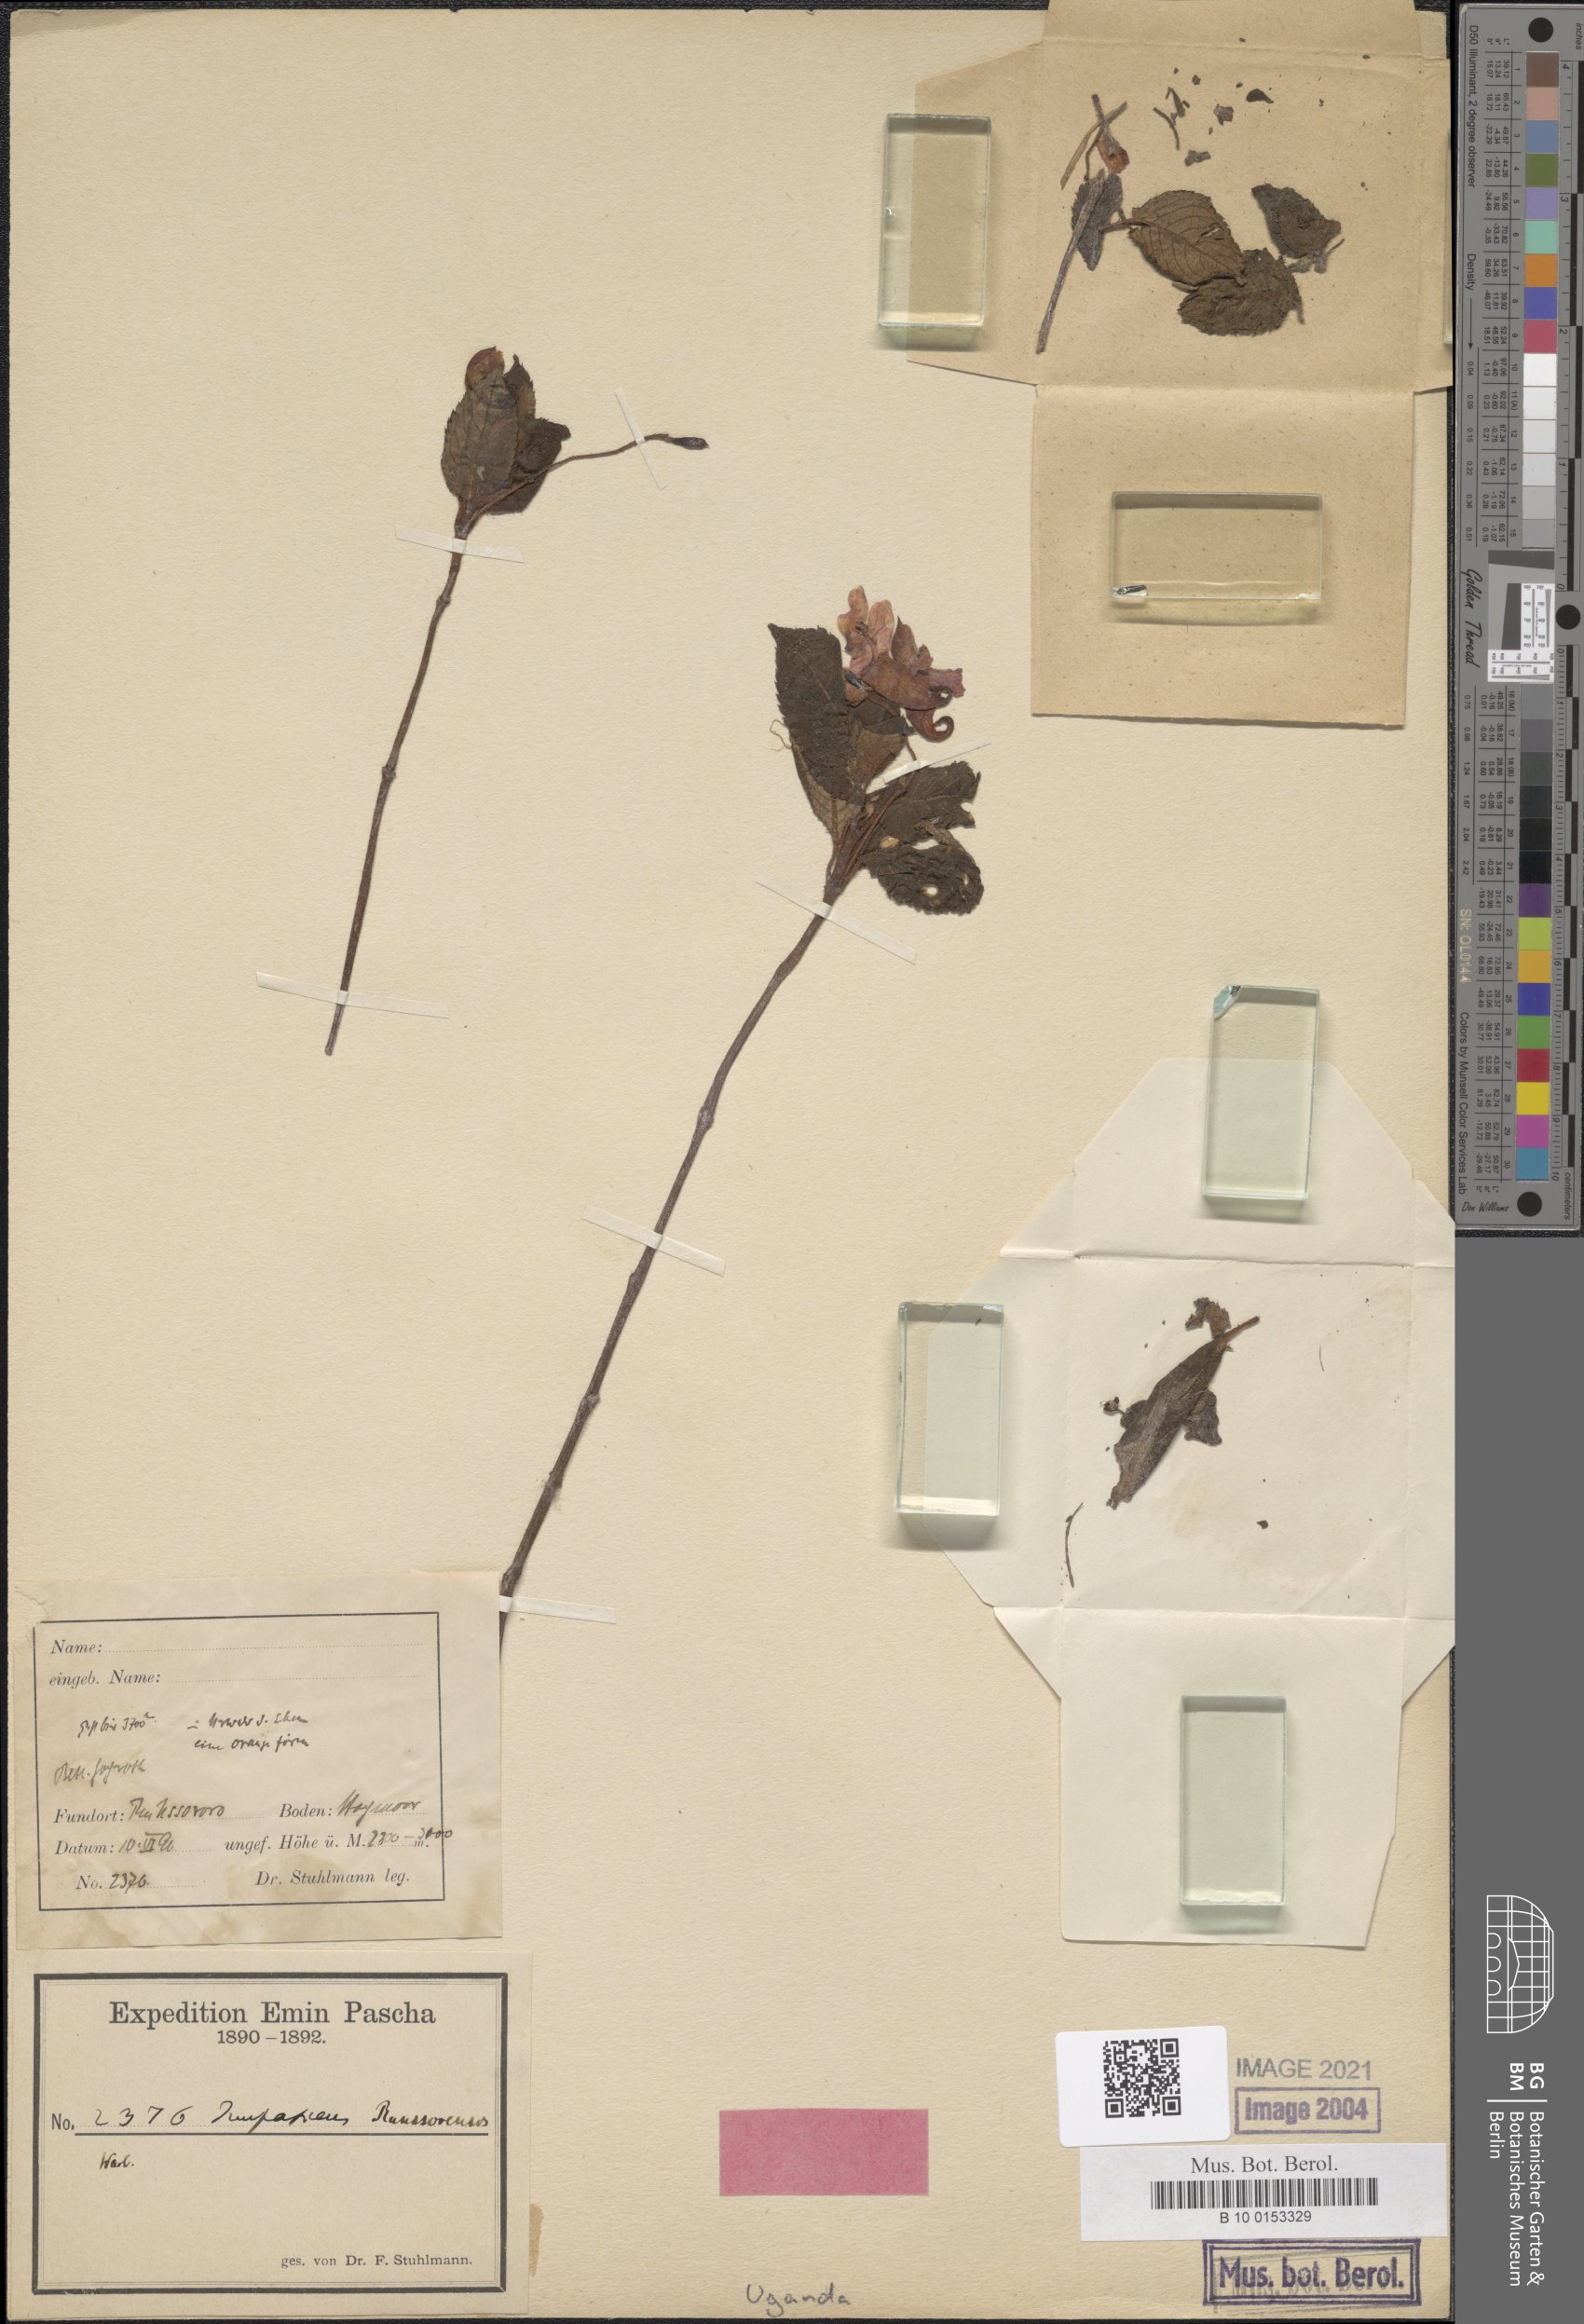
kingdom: Plantae
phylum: Tracheophyta
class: Magnoliopsida
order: Ericales
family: Balsaminaceae
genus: Impatiens
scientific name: Impatiens runssorensis
